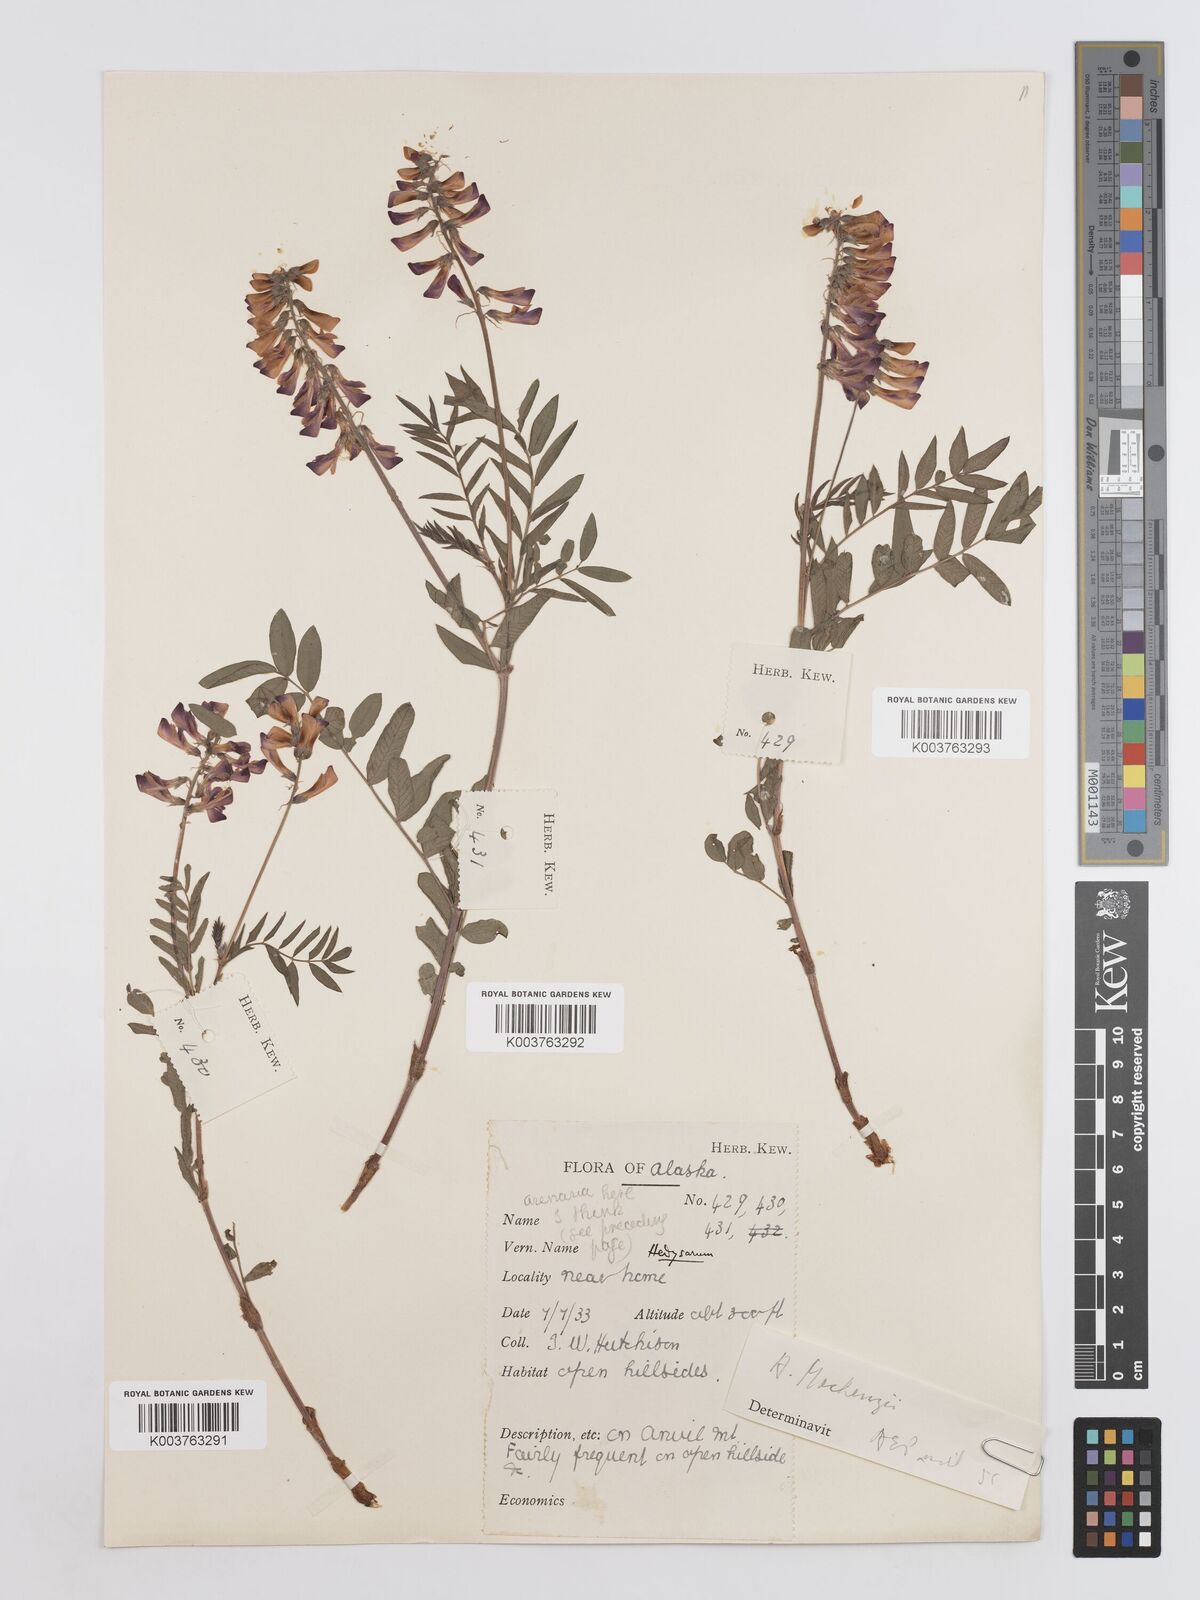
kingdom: Plantae
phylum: Tracheophyta
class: Magnoliopsida
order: Fabales
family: Fabaceae
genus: Hedysarum
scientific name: Hedysarum alpinum
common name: Alpine sweet-vetch
